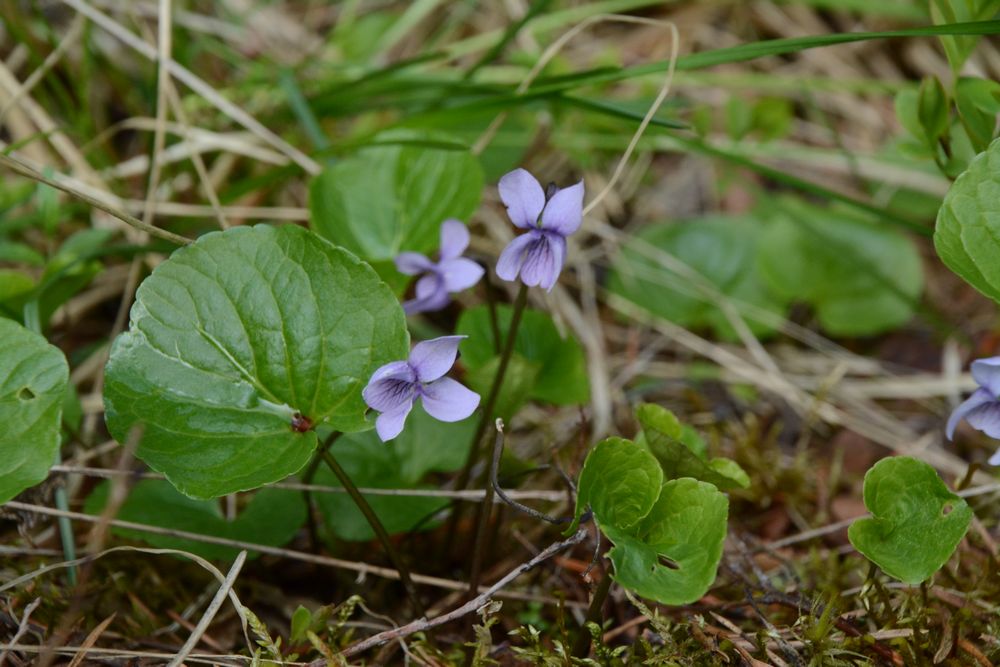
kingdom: Plantae
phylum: Tracheophyta
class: Magnoliopsida
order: Malpighiales
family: Violaceae
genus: Viola
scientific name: Viola palustris
